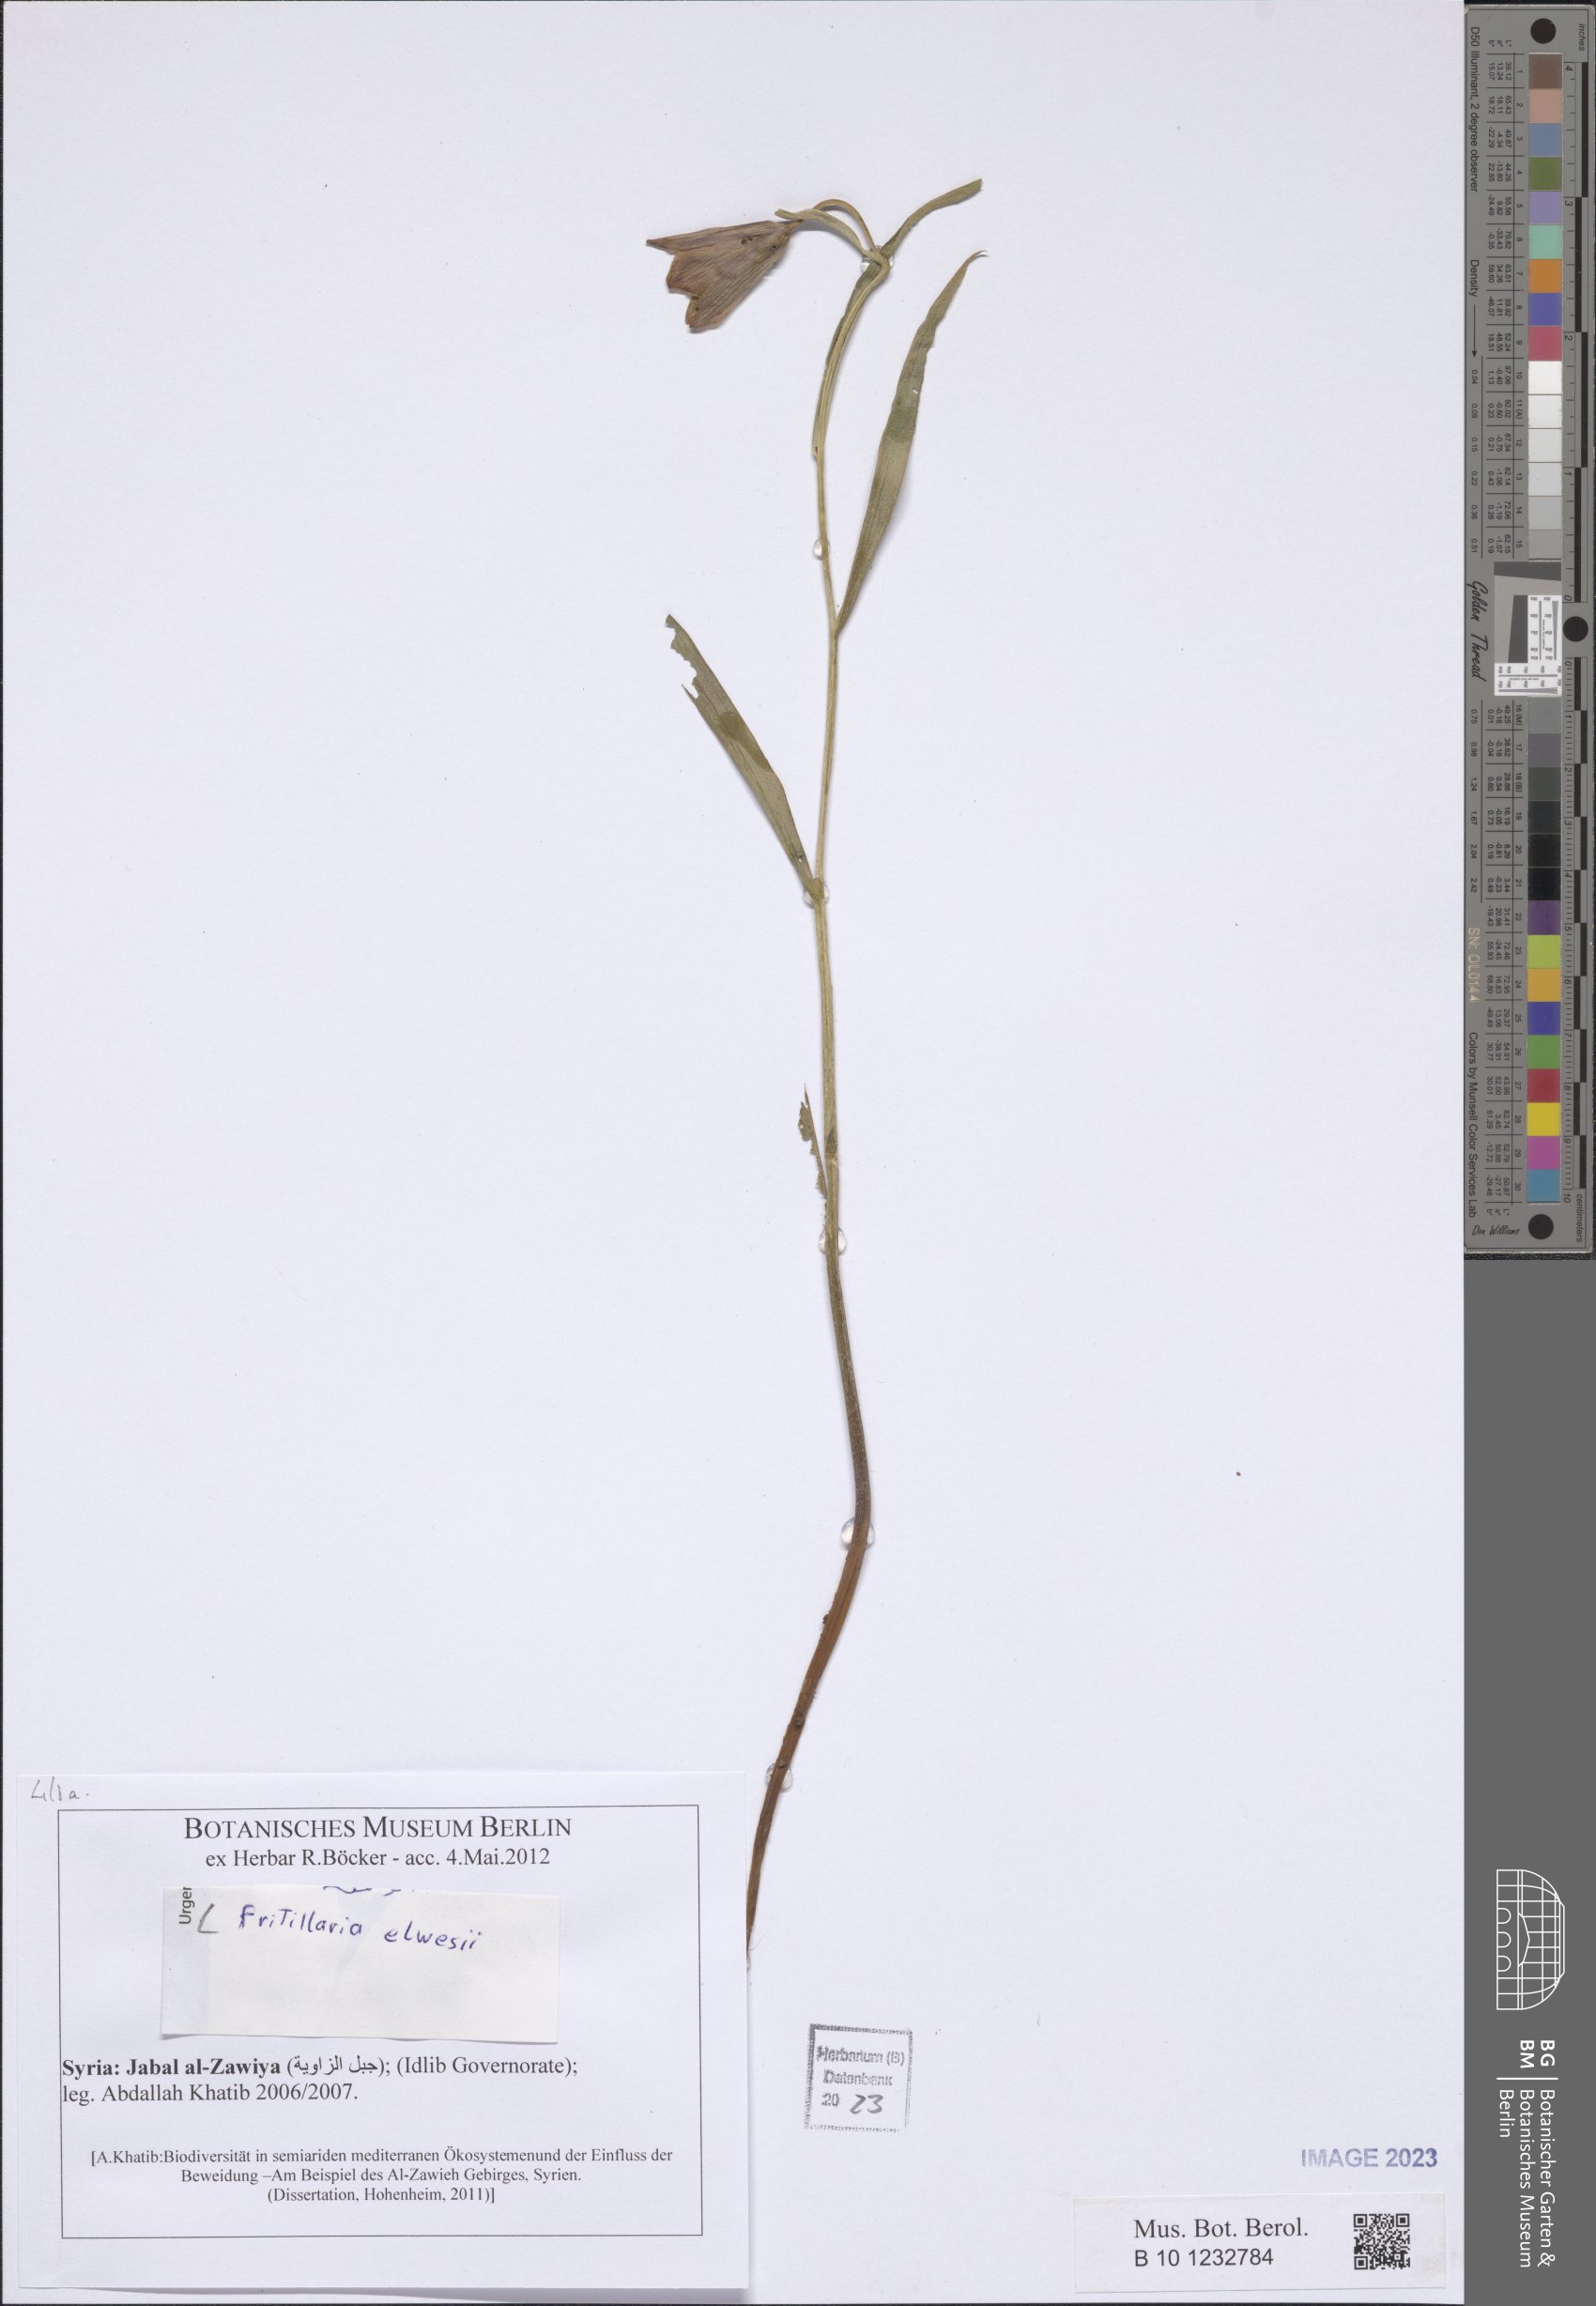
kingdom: Plantae
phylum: Tracheophyta
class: Liliopsida
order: Liliales
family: Liliaceae
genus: Fritillaria
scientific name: Fritillaria elwesii
